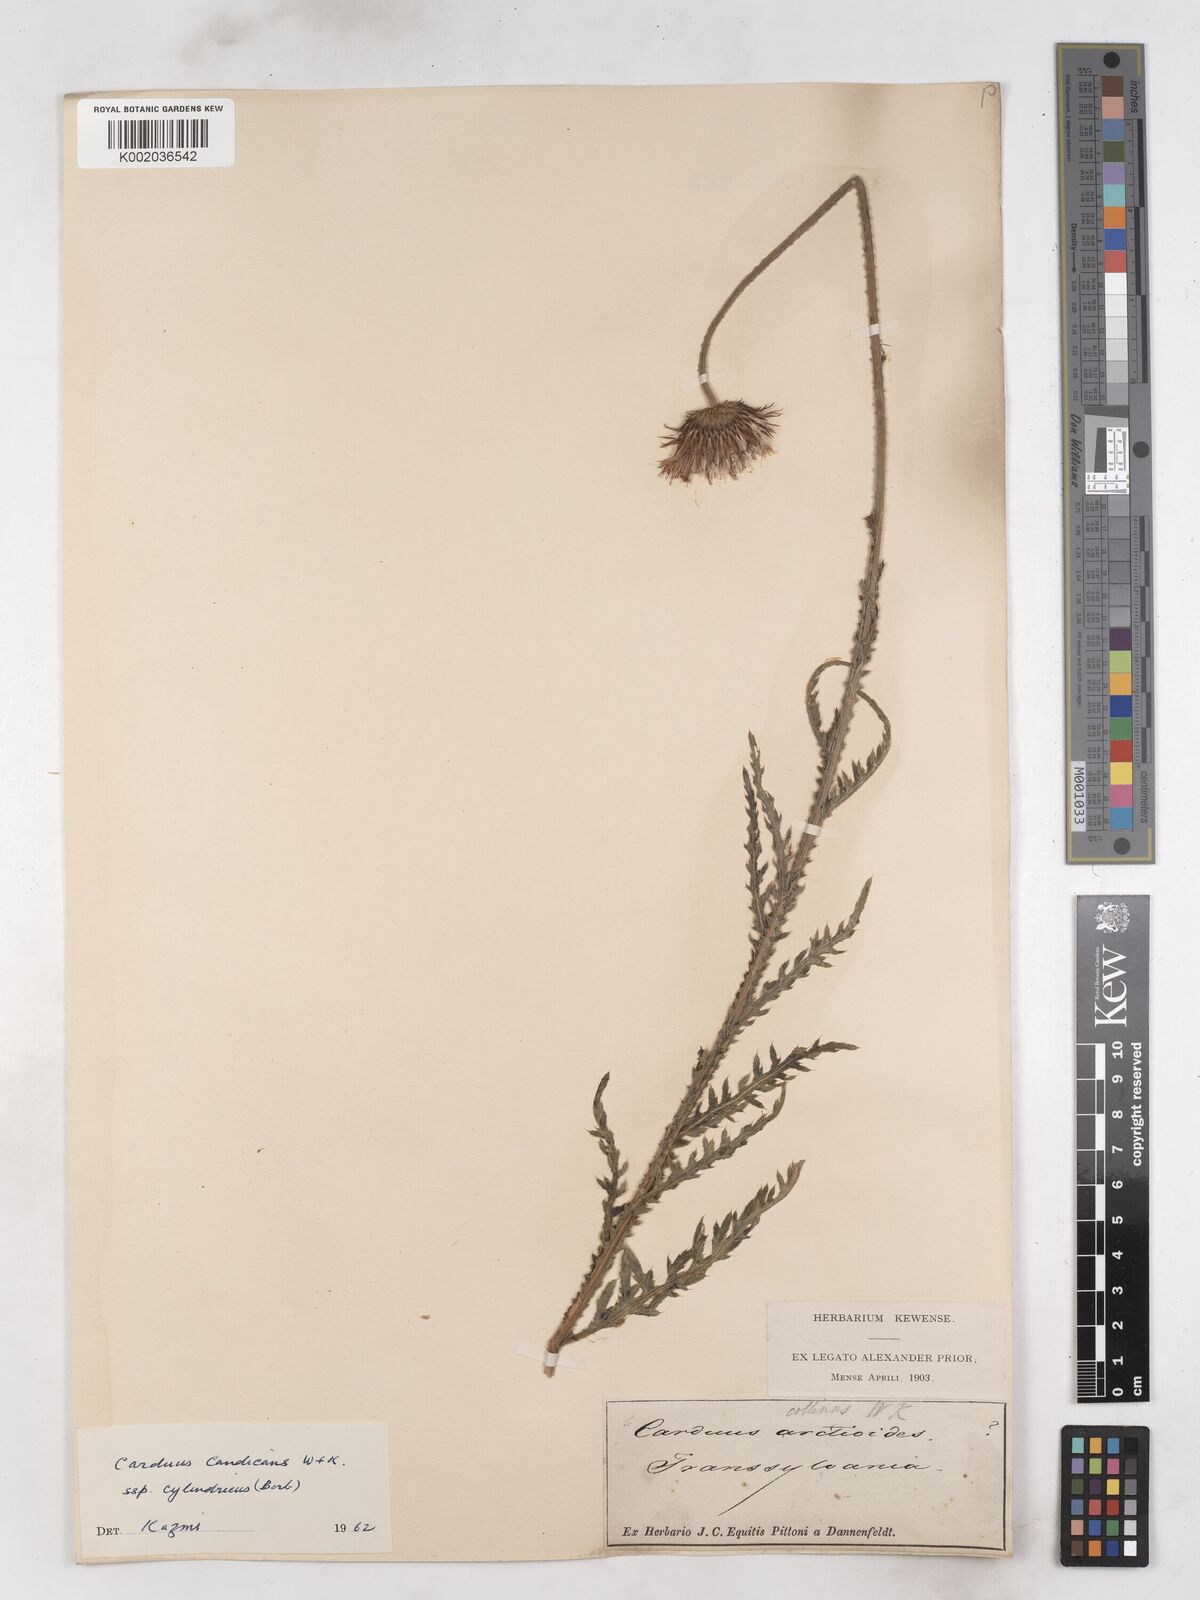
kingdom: Plantae
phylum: Tracheophyta
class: Magnoliopsida
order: Asterales
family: Asteraceae
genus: Carduus
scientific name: Carduus kerneri
